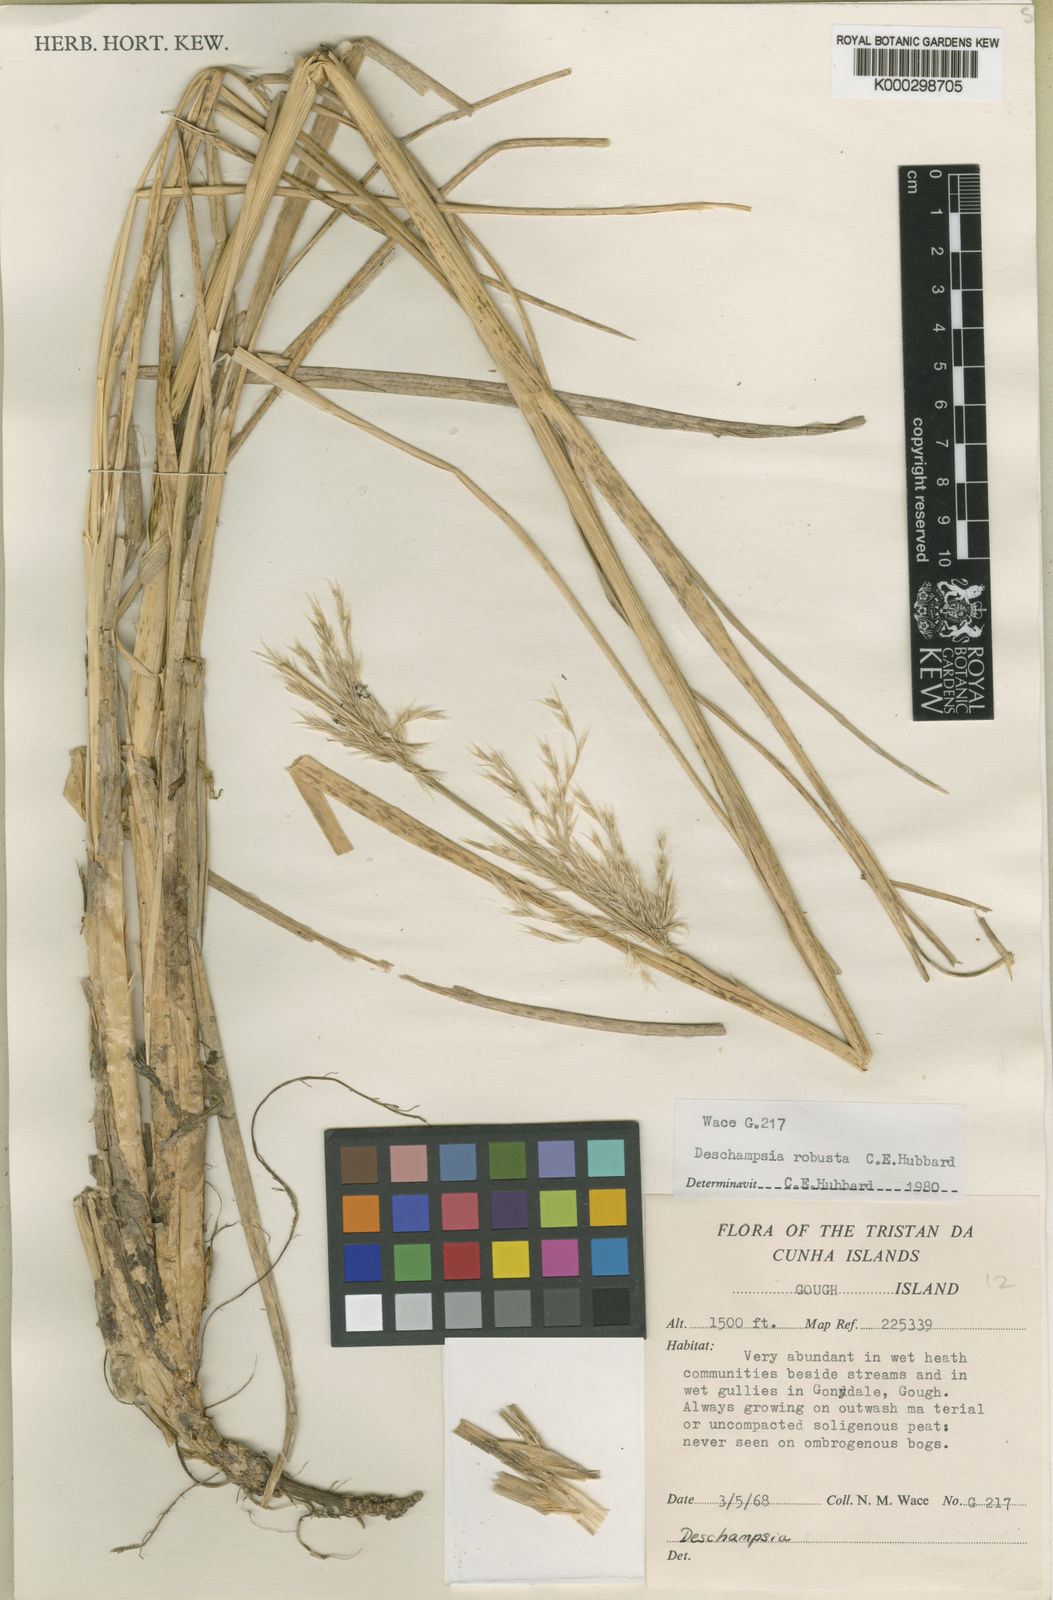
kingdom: Plantae
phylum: Tracheophyta
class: Liliopsida
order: Poales
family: Poaceae
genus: Deschampsia
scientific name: Deschampsia robusta
